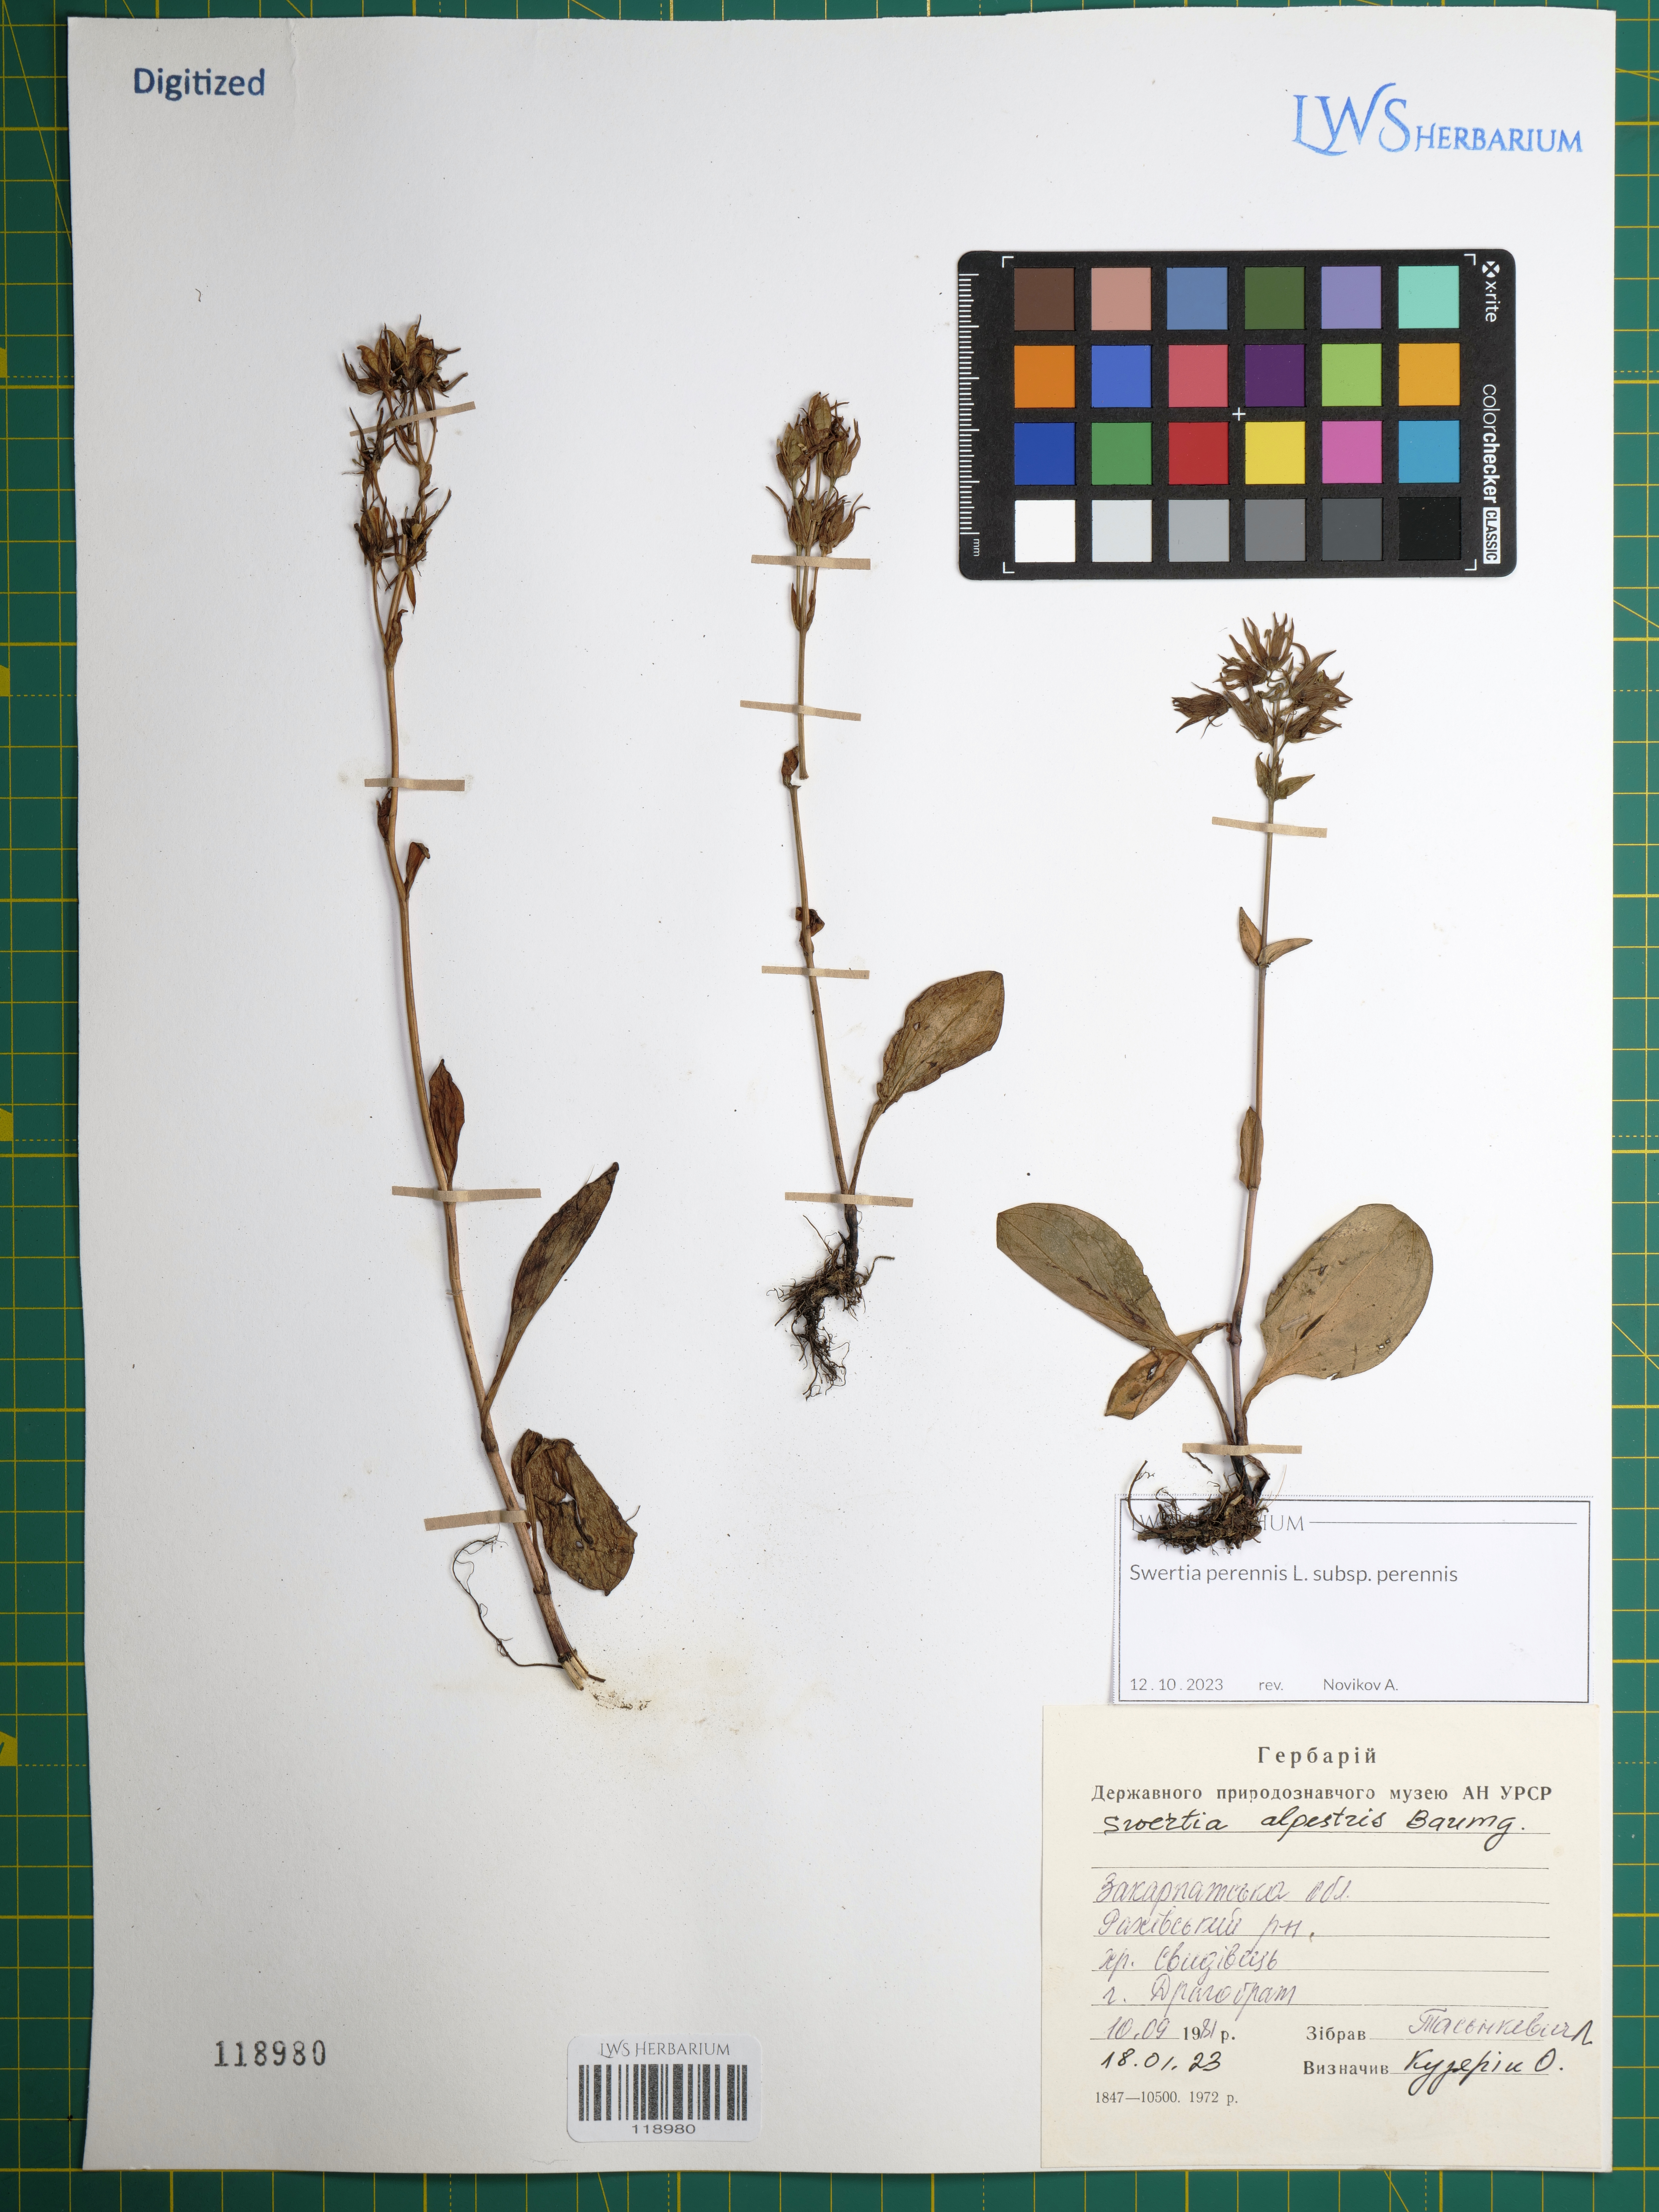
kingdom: Plantae
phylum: Tracheophyta
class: Magnoliopsida
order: Gentianales
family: Gentianaceae
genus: Swertia
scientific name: Swertia perennis
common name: Alpine bog swertia
